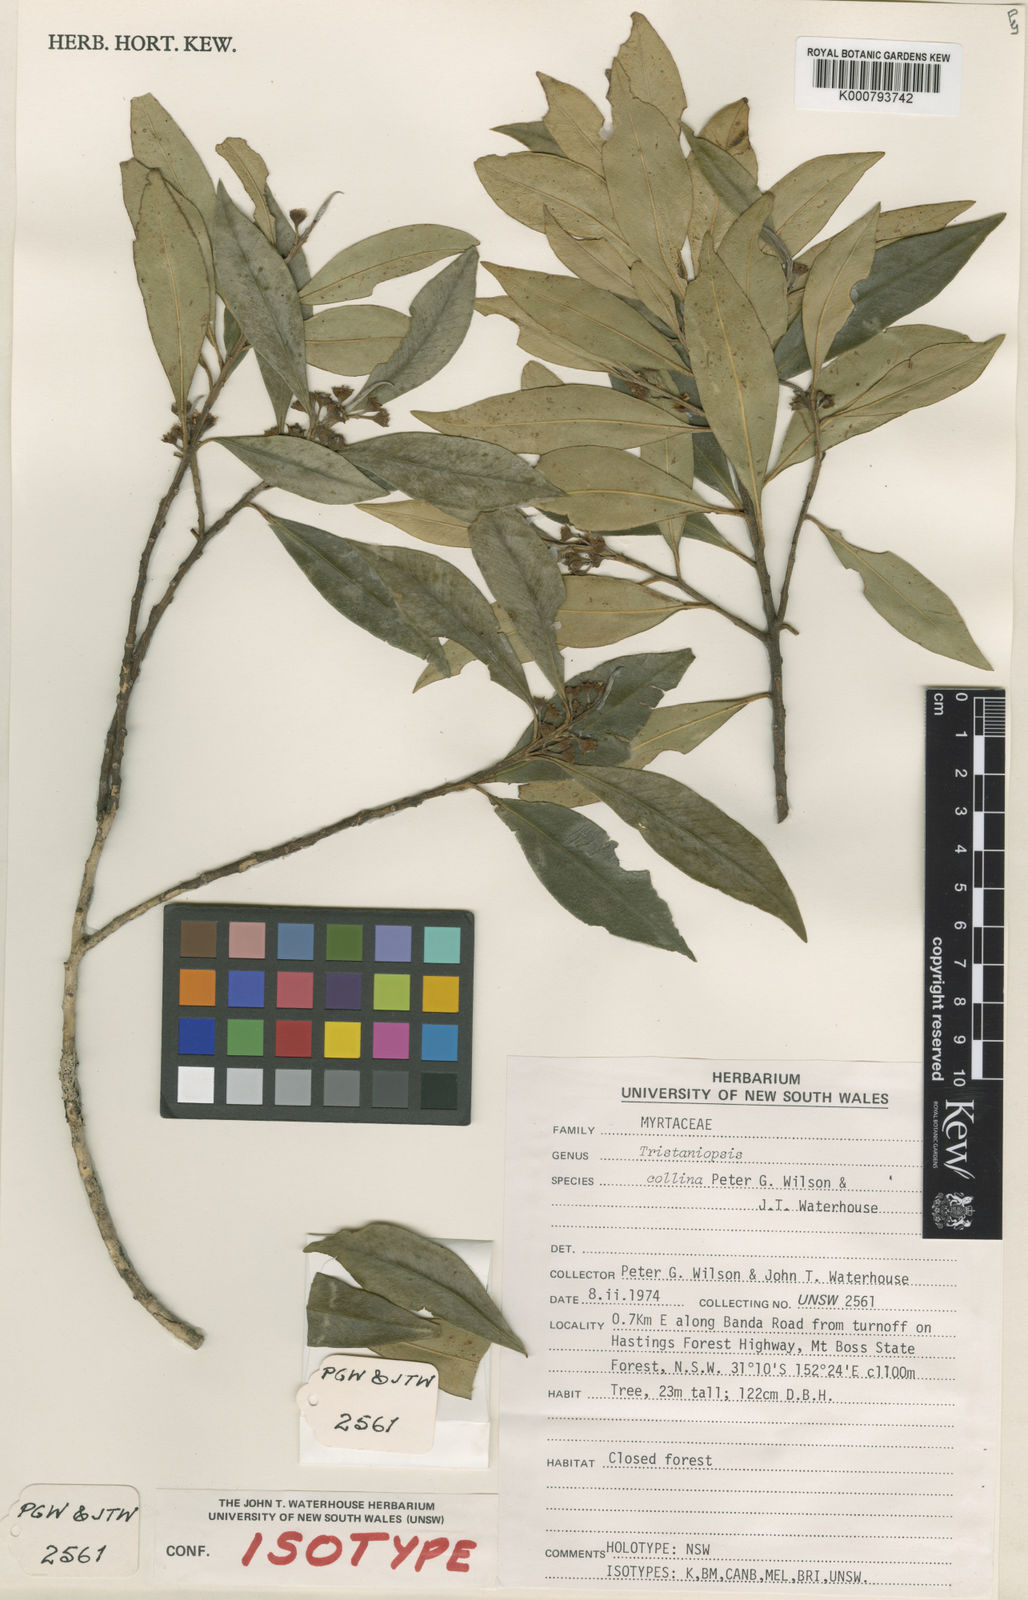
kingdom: Plantae
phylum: Tracheophyta
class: Magnoliopsida
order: Myrtales
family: Myrtaceae
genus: Tristaniopsis
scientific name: Tristaniopsis collina
